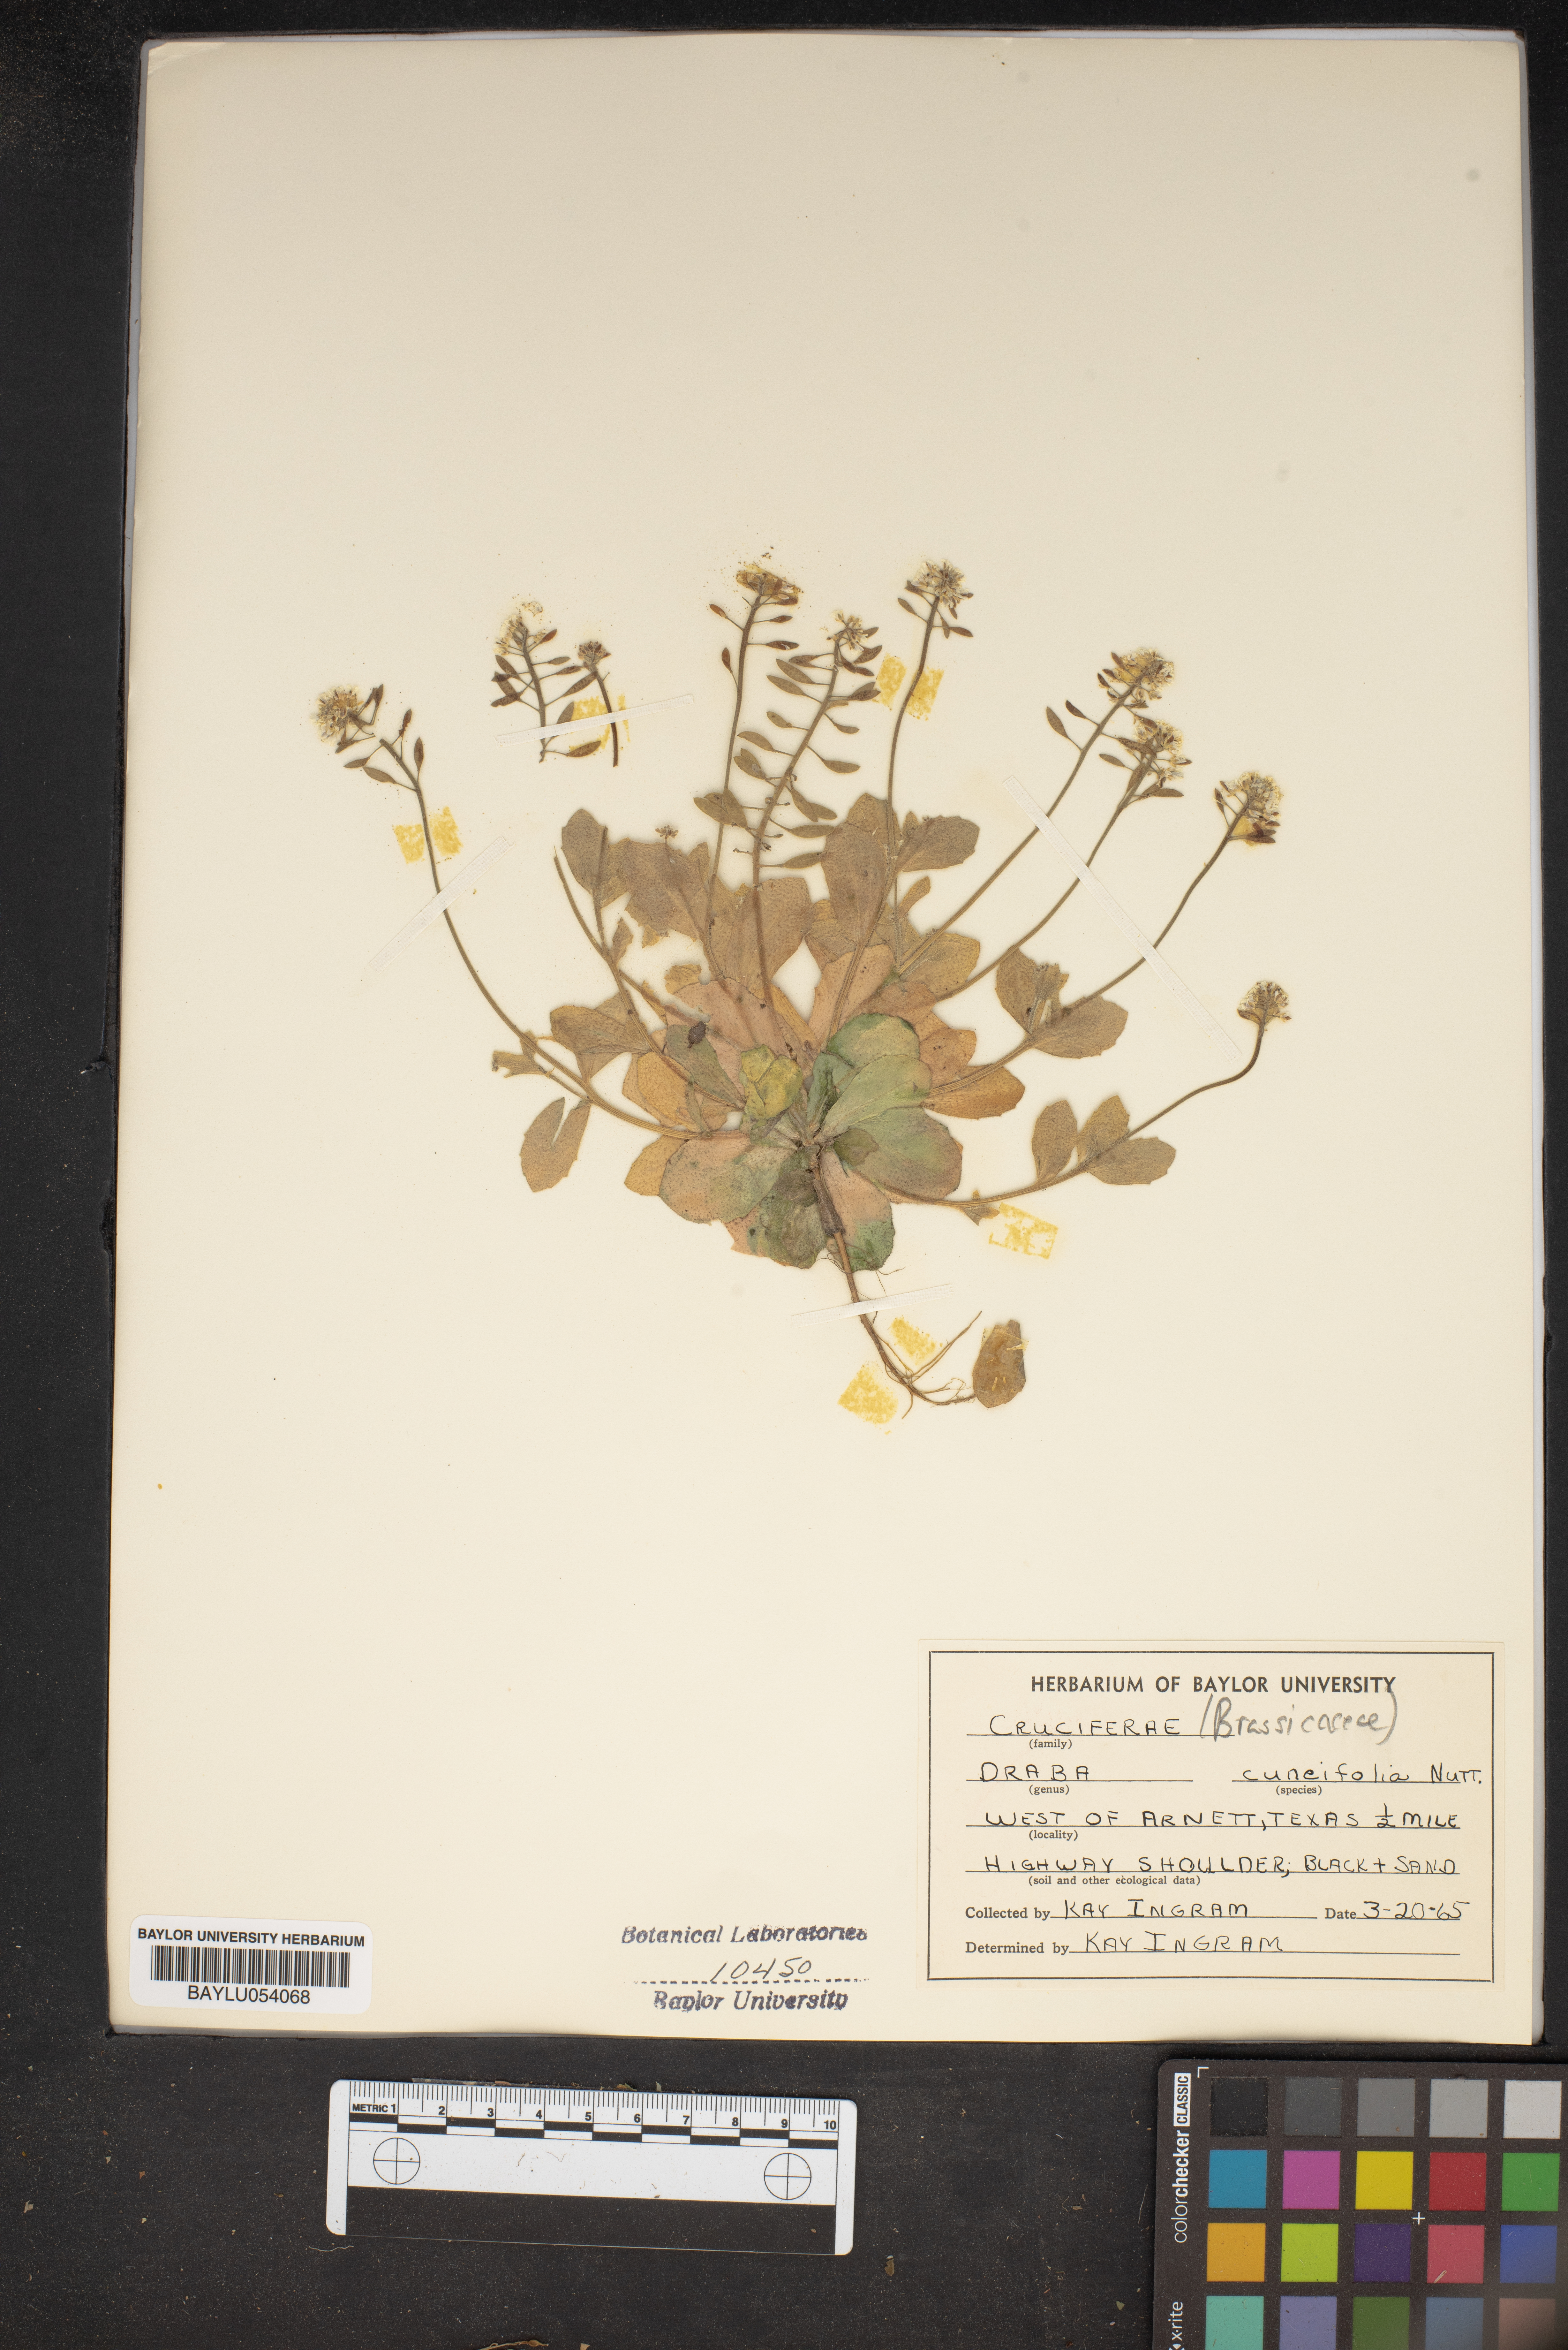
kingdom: Plantae
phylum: Tracheophyta
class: Magnoliopsida
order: Brassicales
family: Brassicaceae
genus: Tomostima
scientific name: Tomostima cuneifolia
